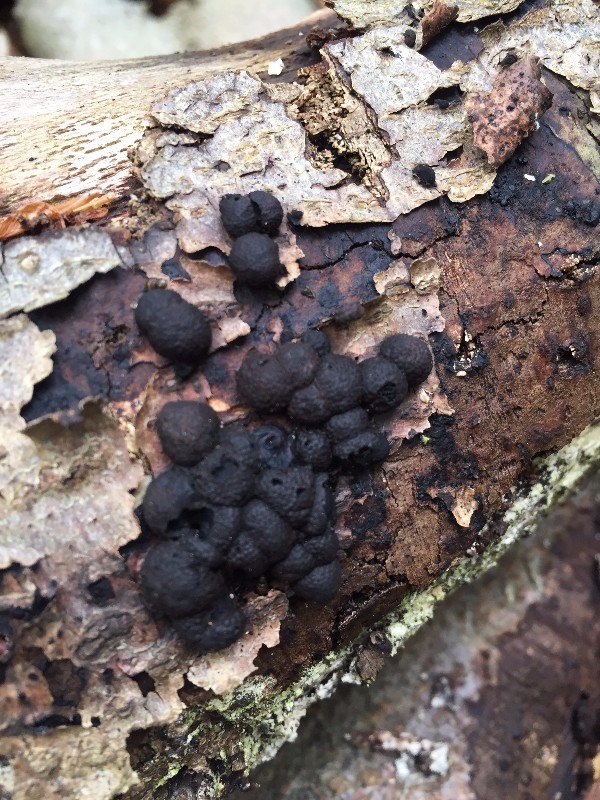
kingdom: Fungi
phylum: Ascomycota
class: Sordariomycetes
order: Xylariales
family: Hypoxylaceae
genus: Hypoxylon
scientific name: Hypoxylon fragiforme
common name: kuljordbær
